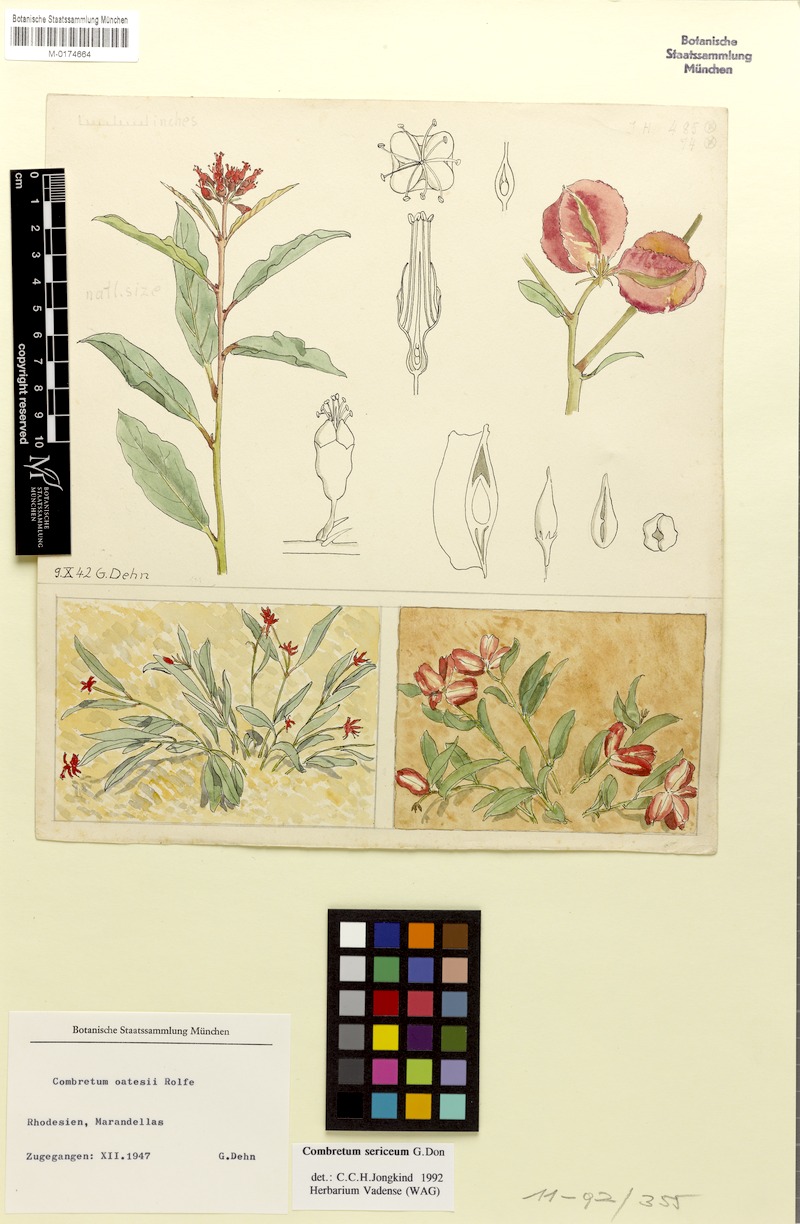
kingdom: Plantae
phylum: Tracheophyta
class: Magnoliopsida
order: Myrtales
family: Combretaceae
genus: Combretum
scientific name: Combretum sericeum
